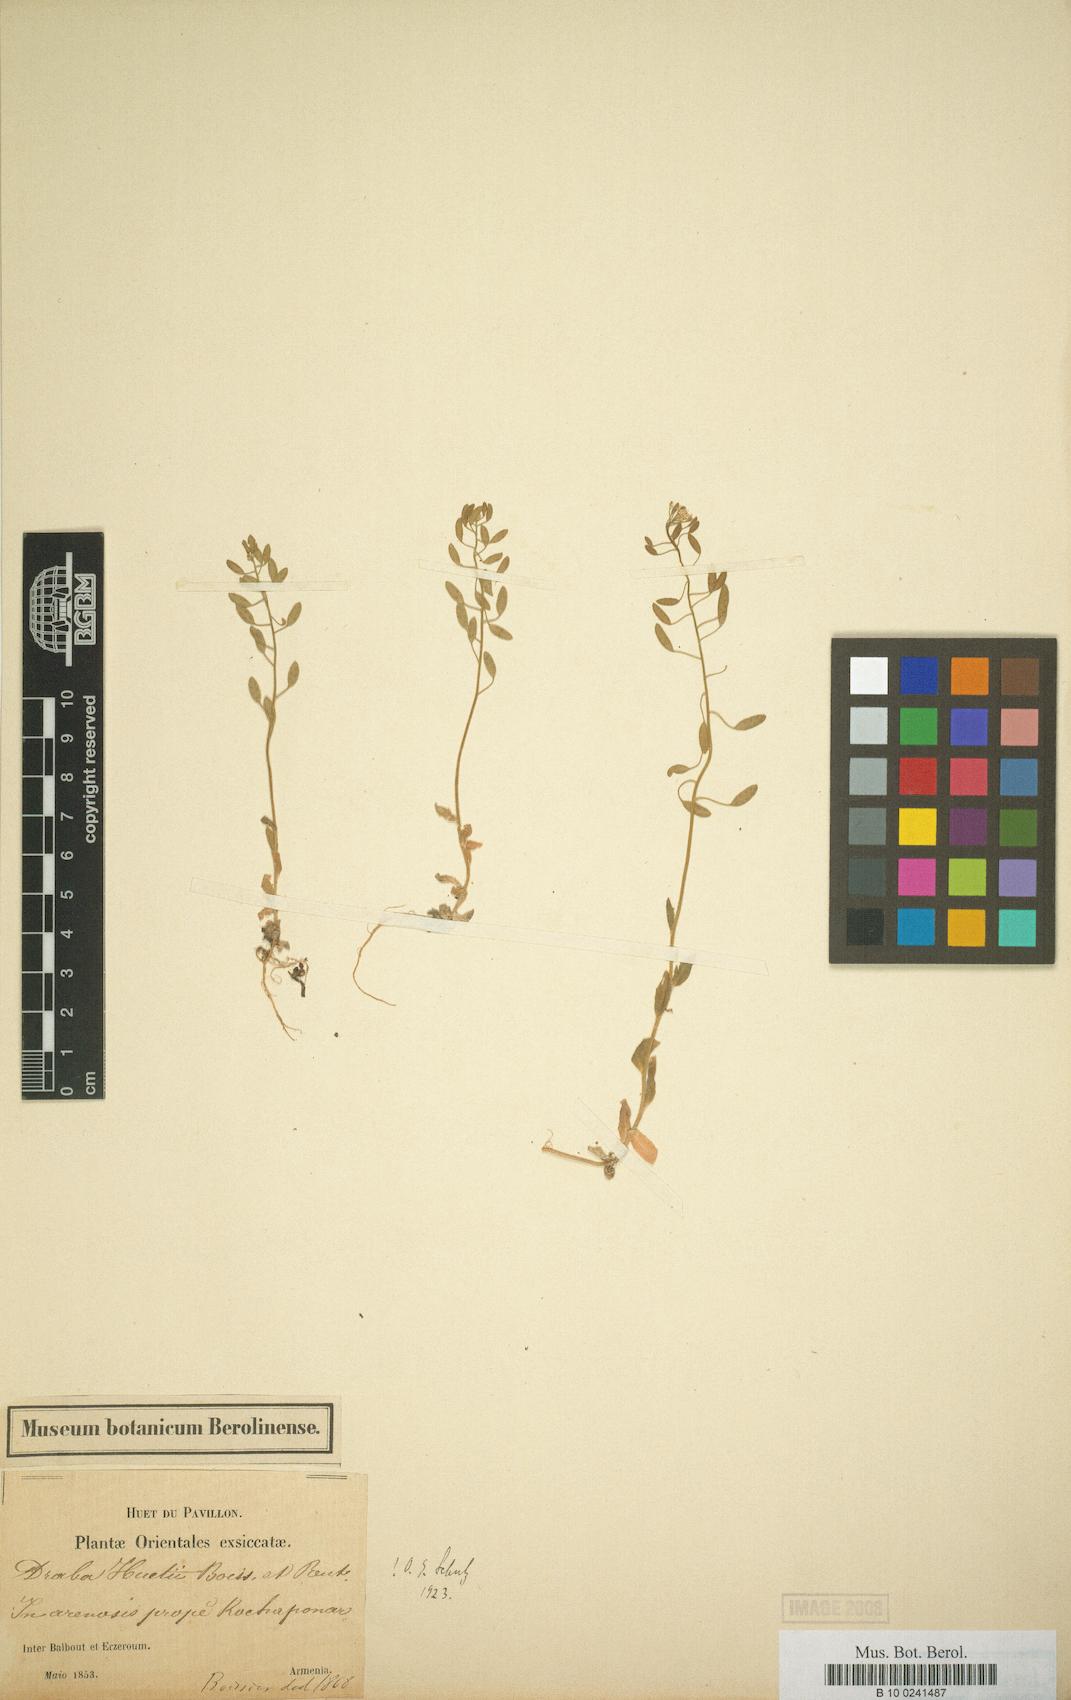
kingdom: Plantae
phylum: Tracheophyta
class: Magnoliopsida
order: Brassicales
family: Brassicaceae
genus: Draba
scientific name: Draba huetii
